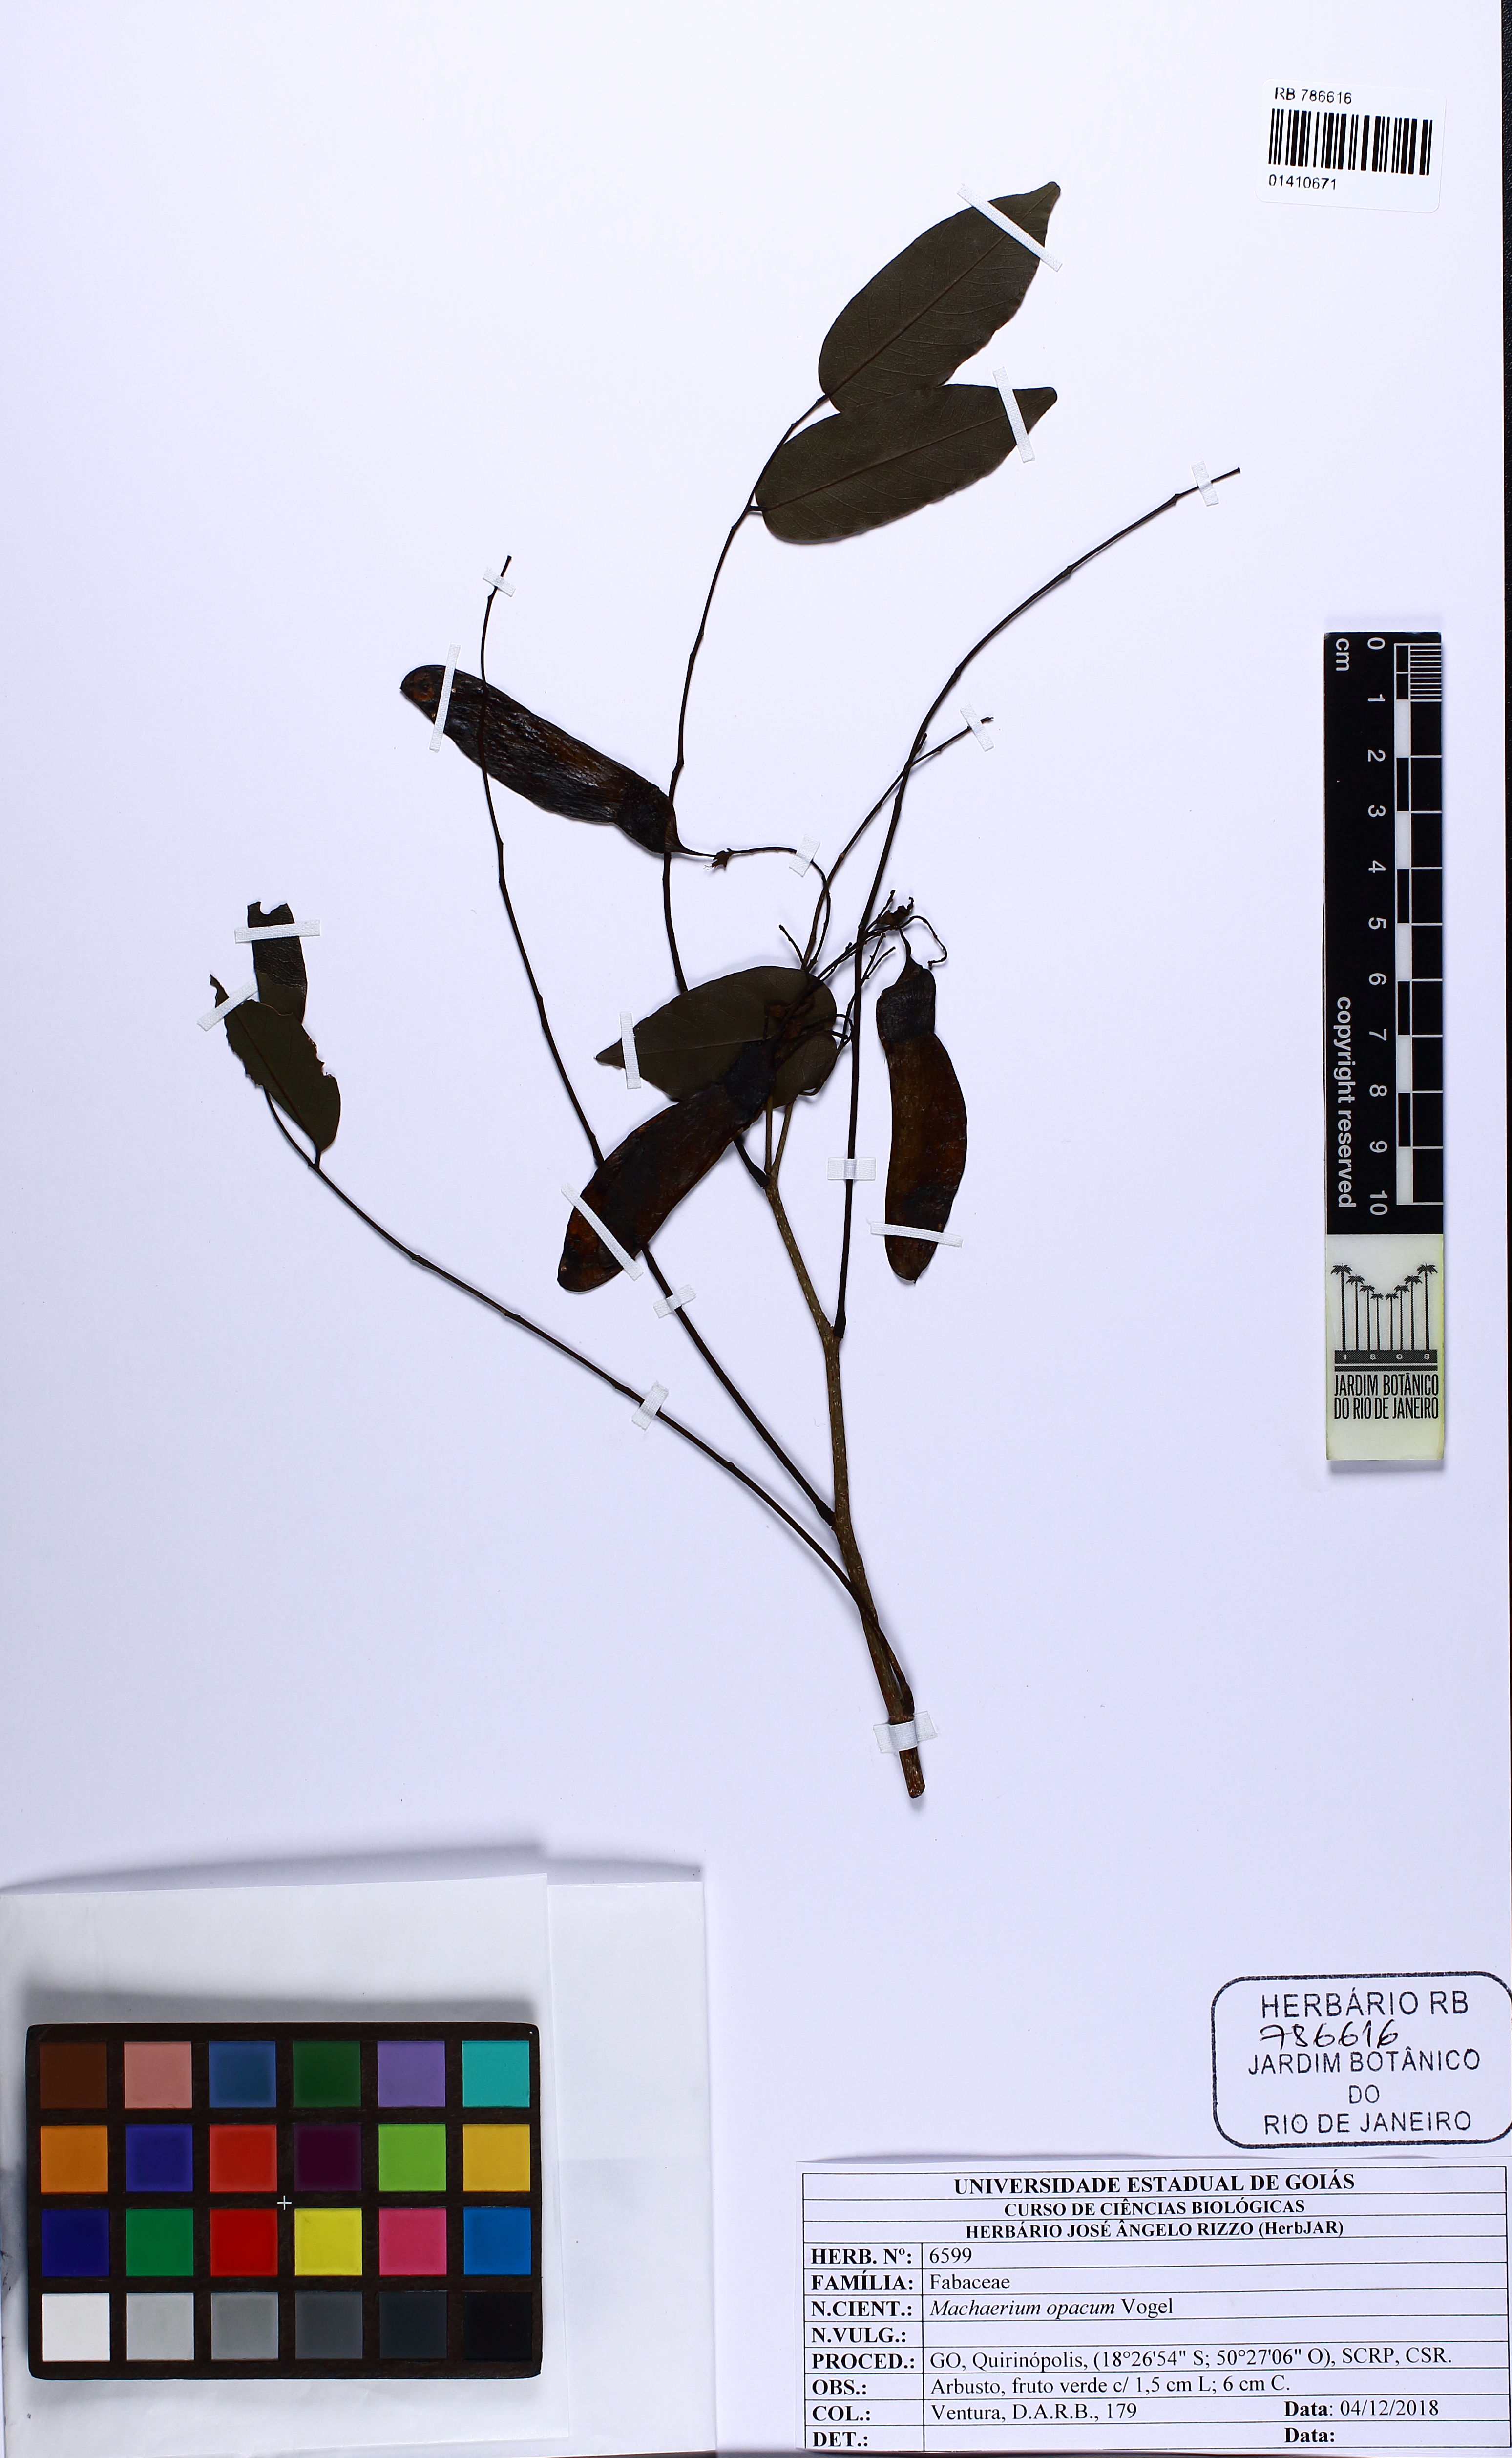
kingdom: Plantae
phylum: Tracheophyta
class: Magnoliopsida
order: Fabales
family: Fabaceae
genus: Machaerium
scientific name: Machaerium opacum
